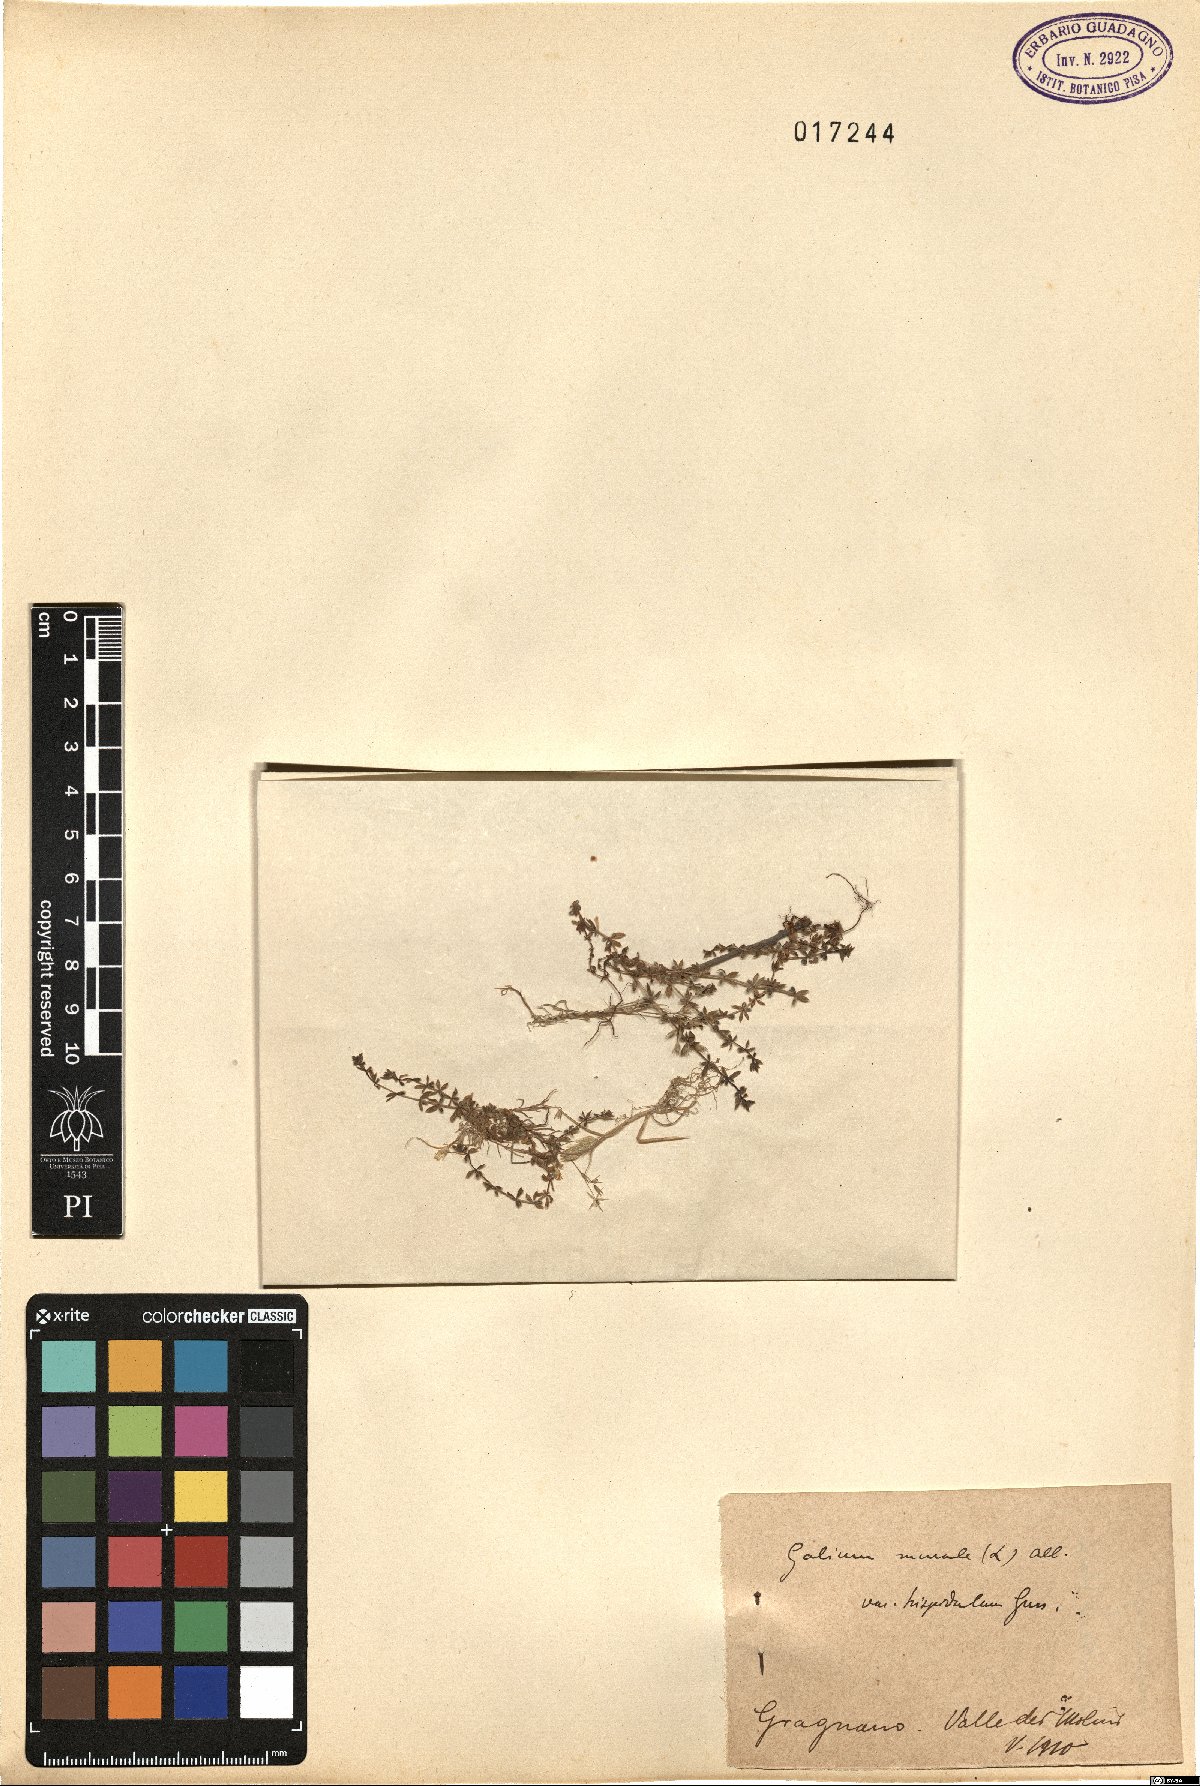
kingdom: Plantae
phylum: Tracheophyta
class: Magnoliopsida
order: Gentianales
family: Rubiaceae
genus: Galium
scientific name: Galium murale
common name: Yellow wall bedstraw
